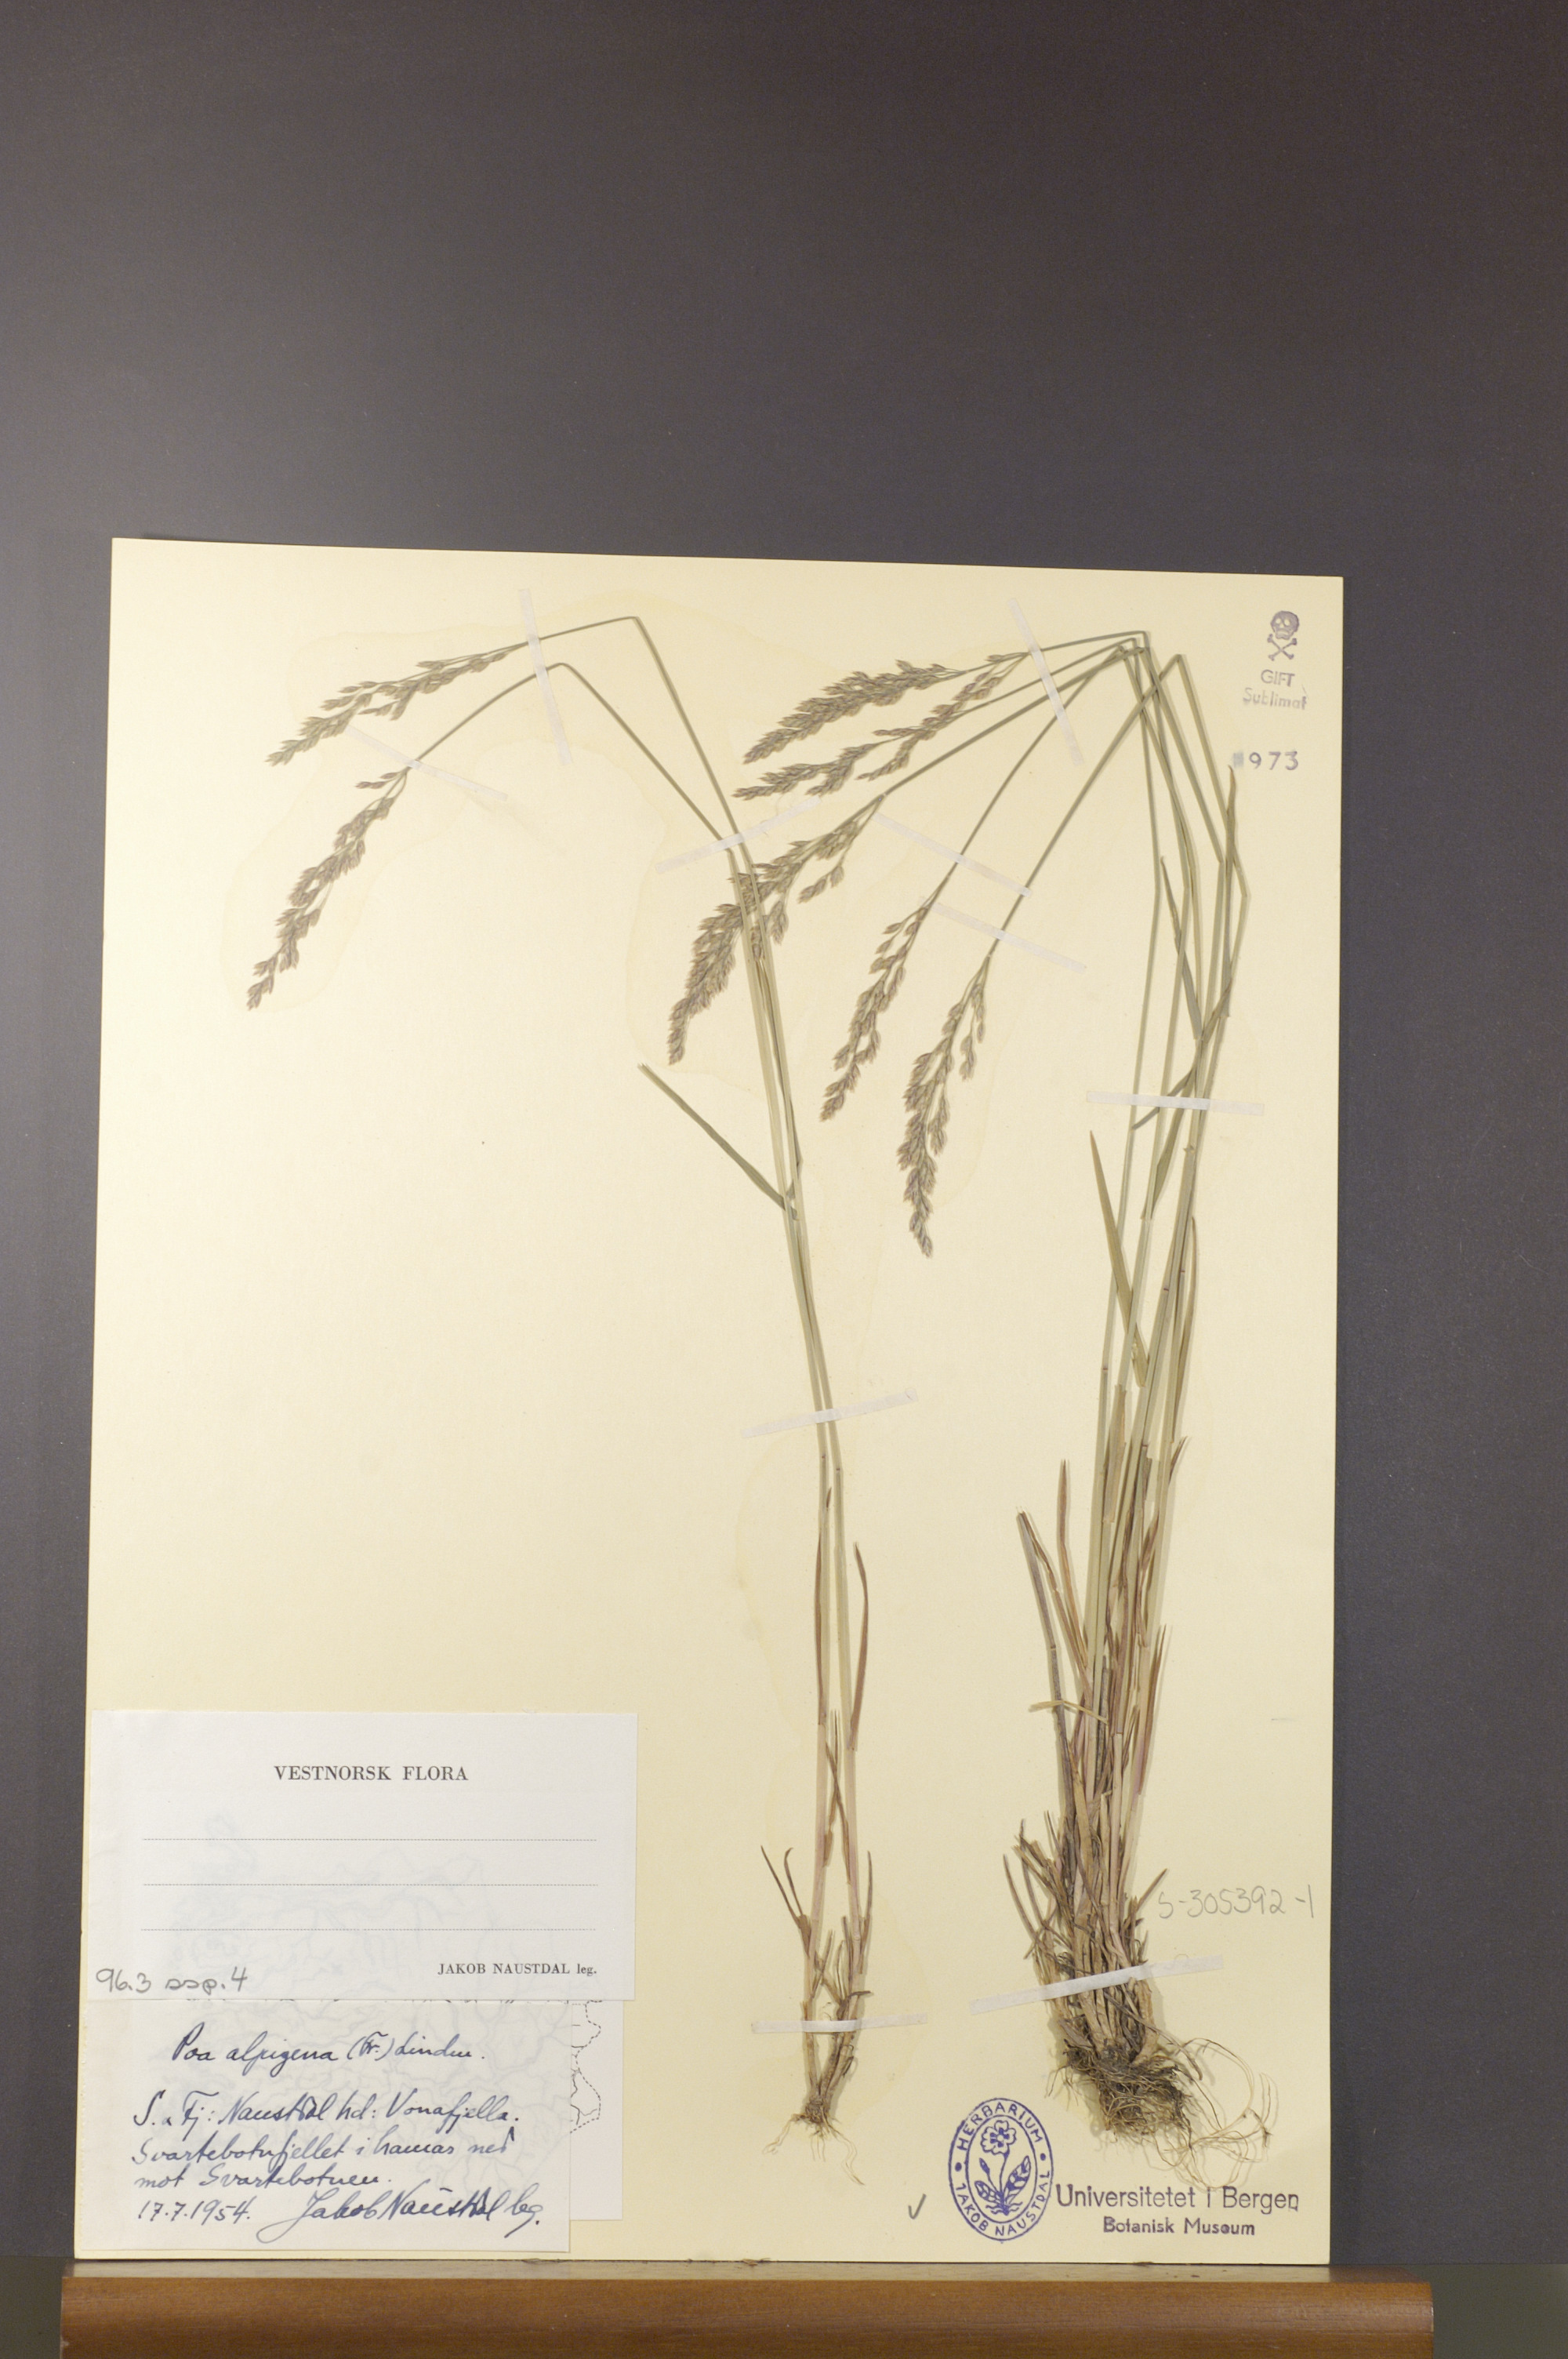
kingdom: Plantae
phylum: Tracheophyta
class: Liliopsida
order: Poales
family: Poaceae
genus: Poa
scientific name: Poa alpigena
